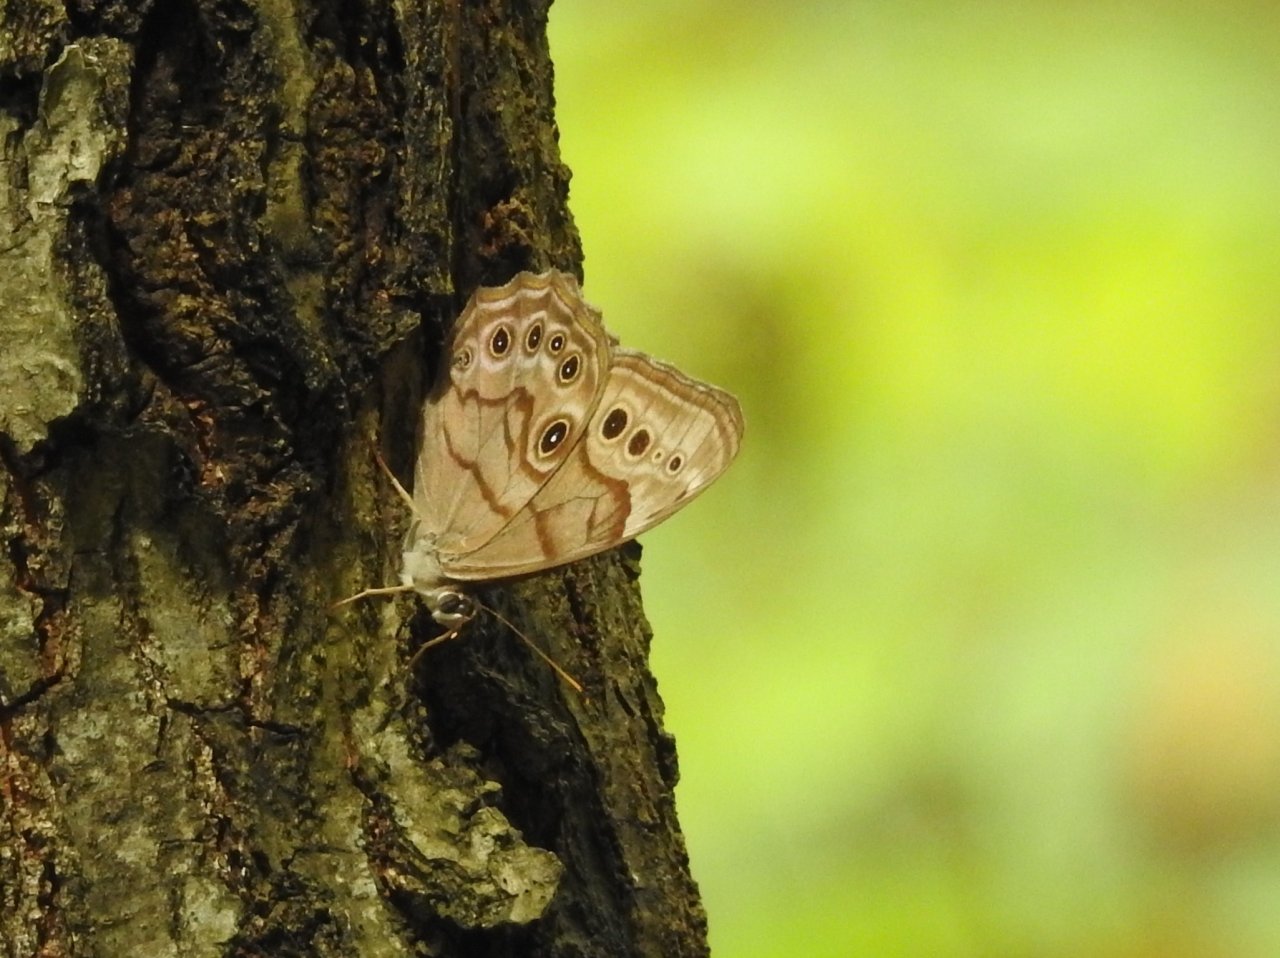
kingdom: Animalia
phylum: Arthropoda
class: Insecta
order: Lepidoptera
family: Nymphalidae
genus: Lethe
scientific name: Lethe anthedon
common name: Northern Pearly-Eye
